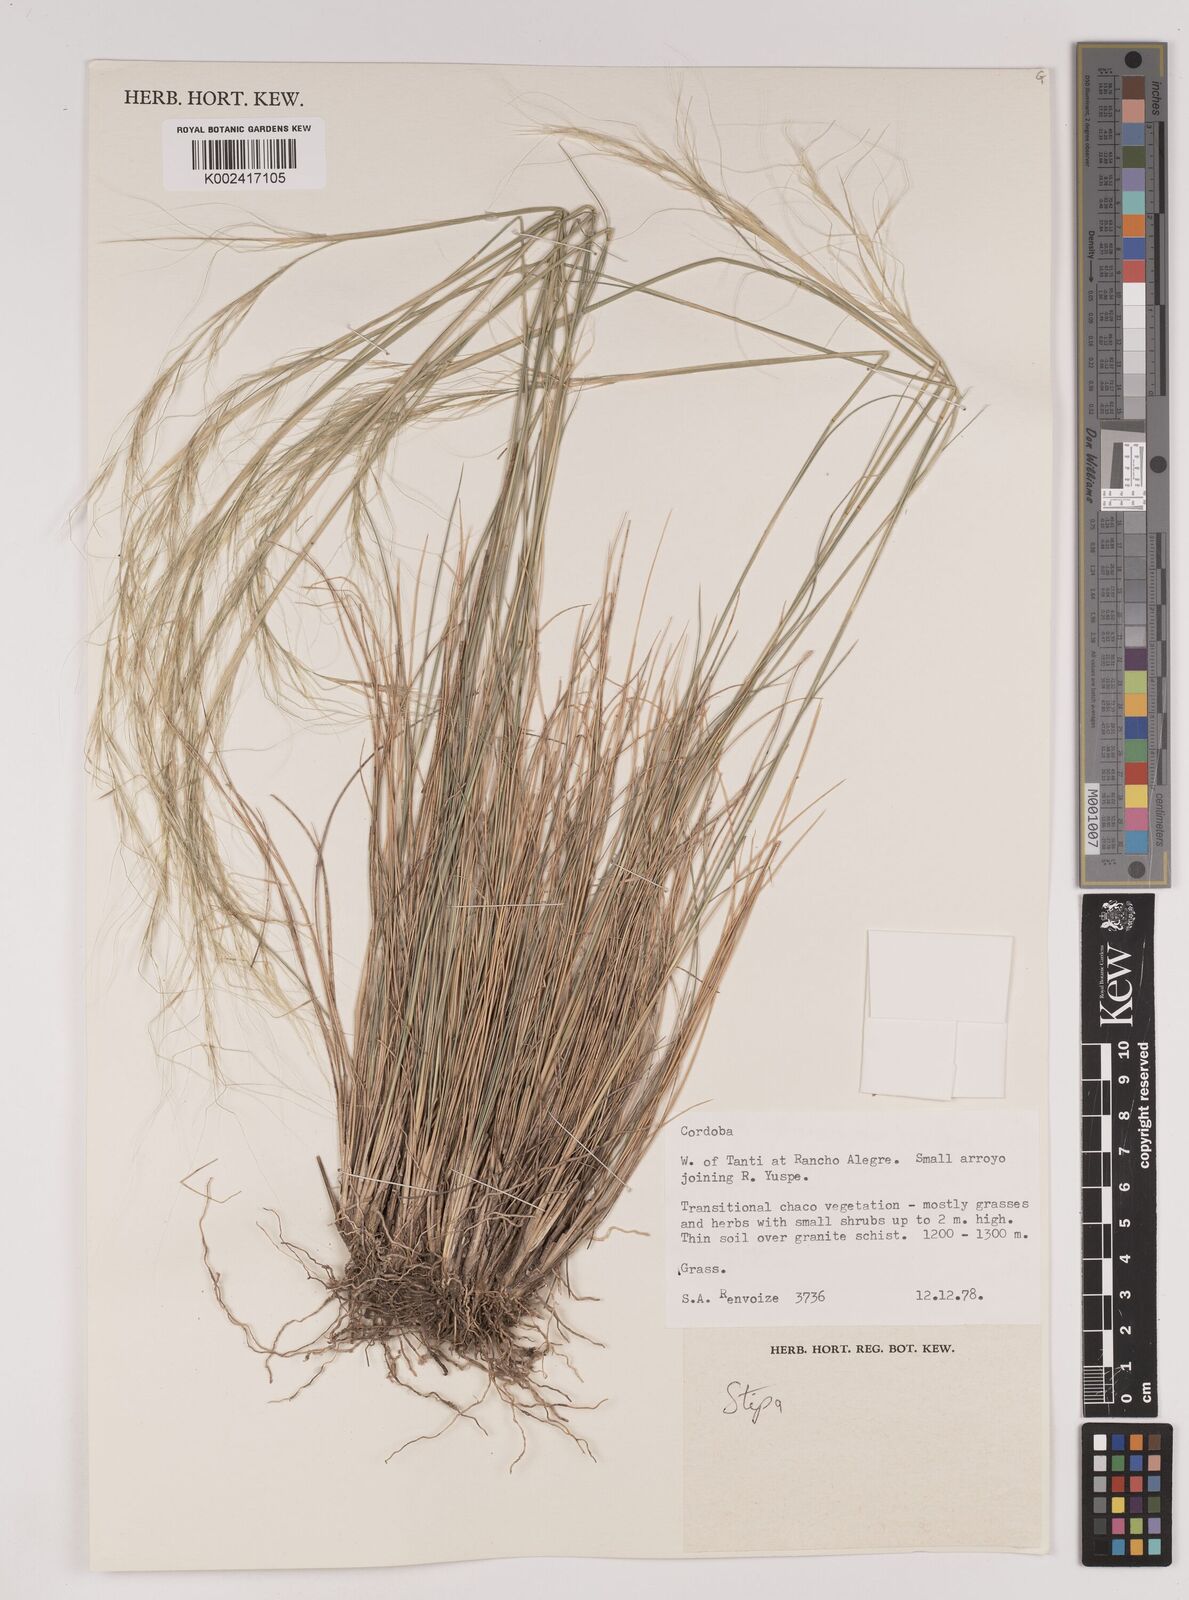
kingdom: Plantae
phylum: Tracheophyta
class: Liliopsida
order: Poales
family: Poaceae
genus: Stipa
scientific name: Stipa
